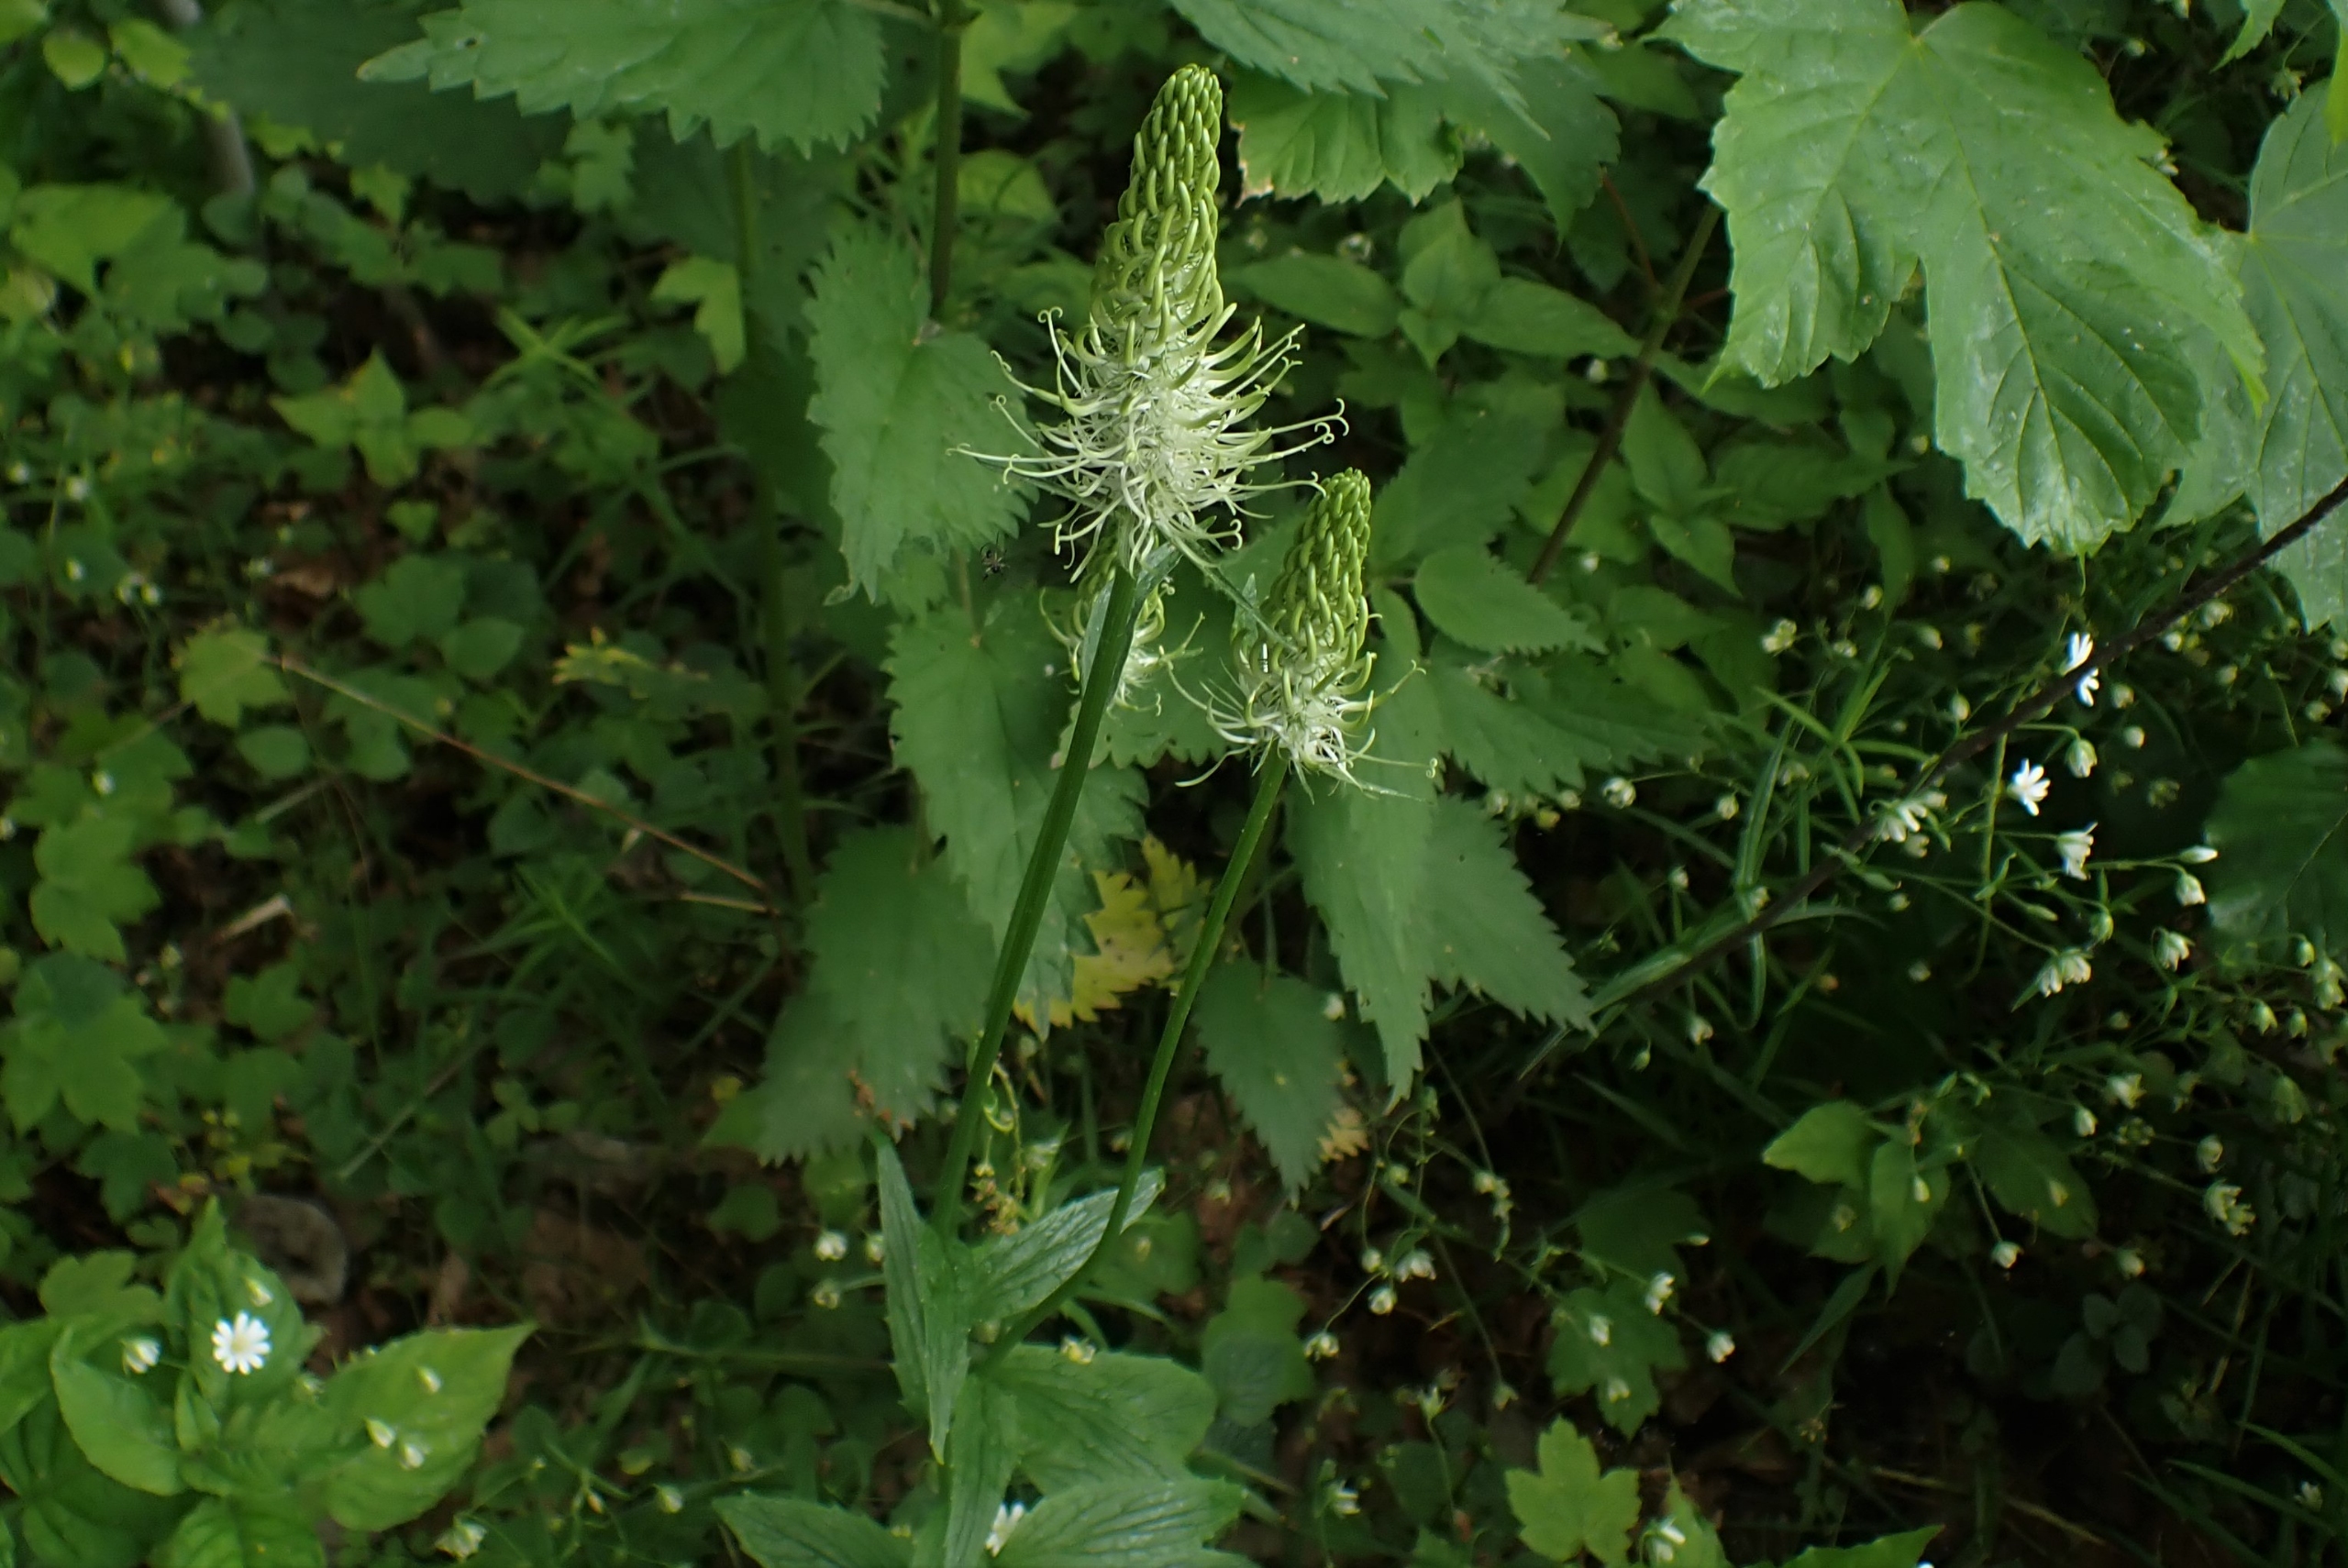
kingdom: Plantae
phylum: Tracheophyta
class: Magnoliopsida
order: Asterales
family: Campanulaceae
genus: Phyteuma
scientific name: Phyteuma spicatum
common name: Aks-rapunsel
